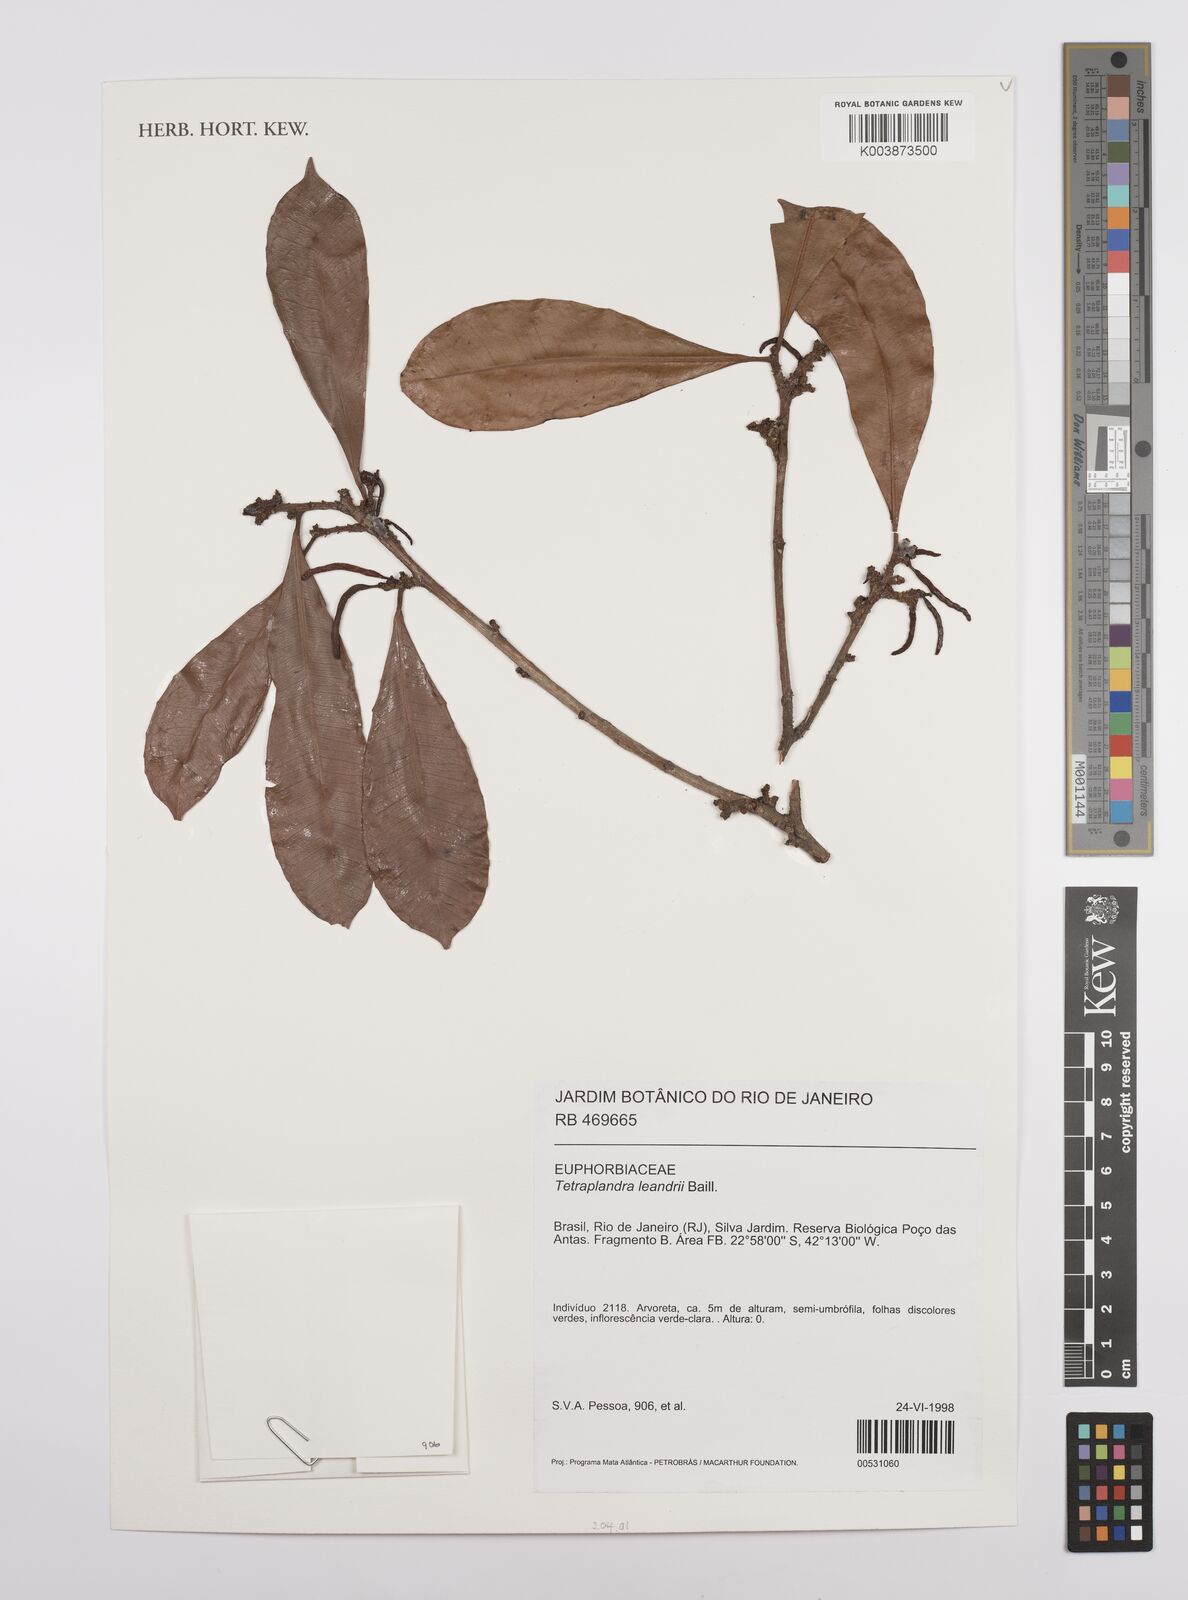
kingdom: Plantae
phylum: Tracheophyta
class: Magnoliopsida
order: Malpighiales
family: Euphorbiaceae
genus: Algernonia
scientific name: Algernonia leandrii
